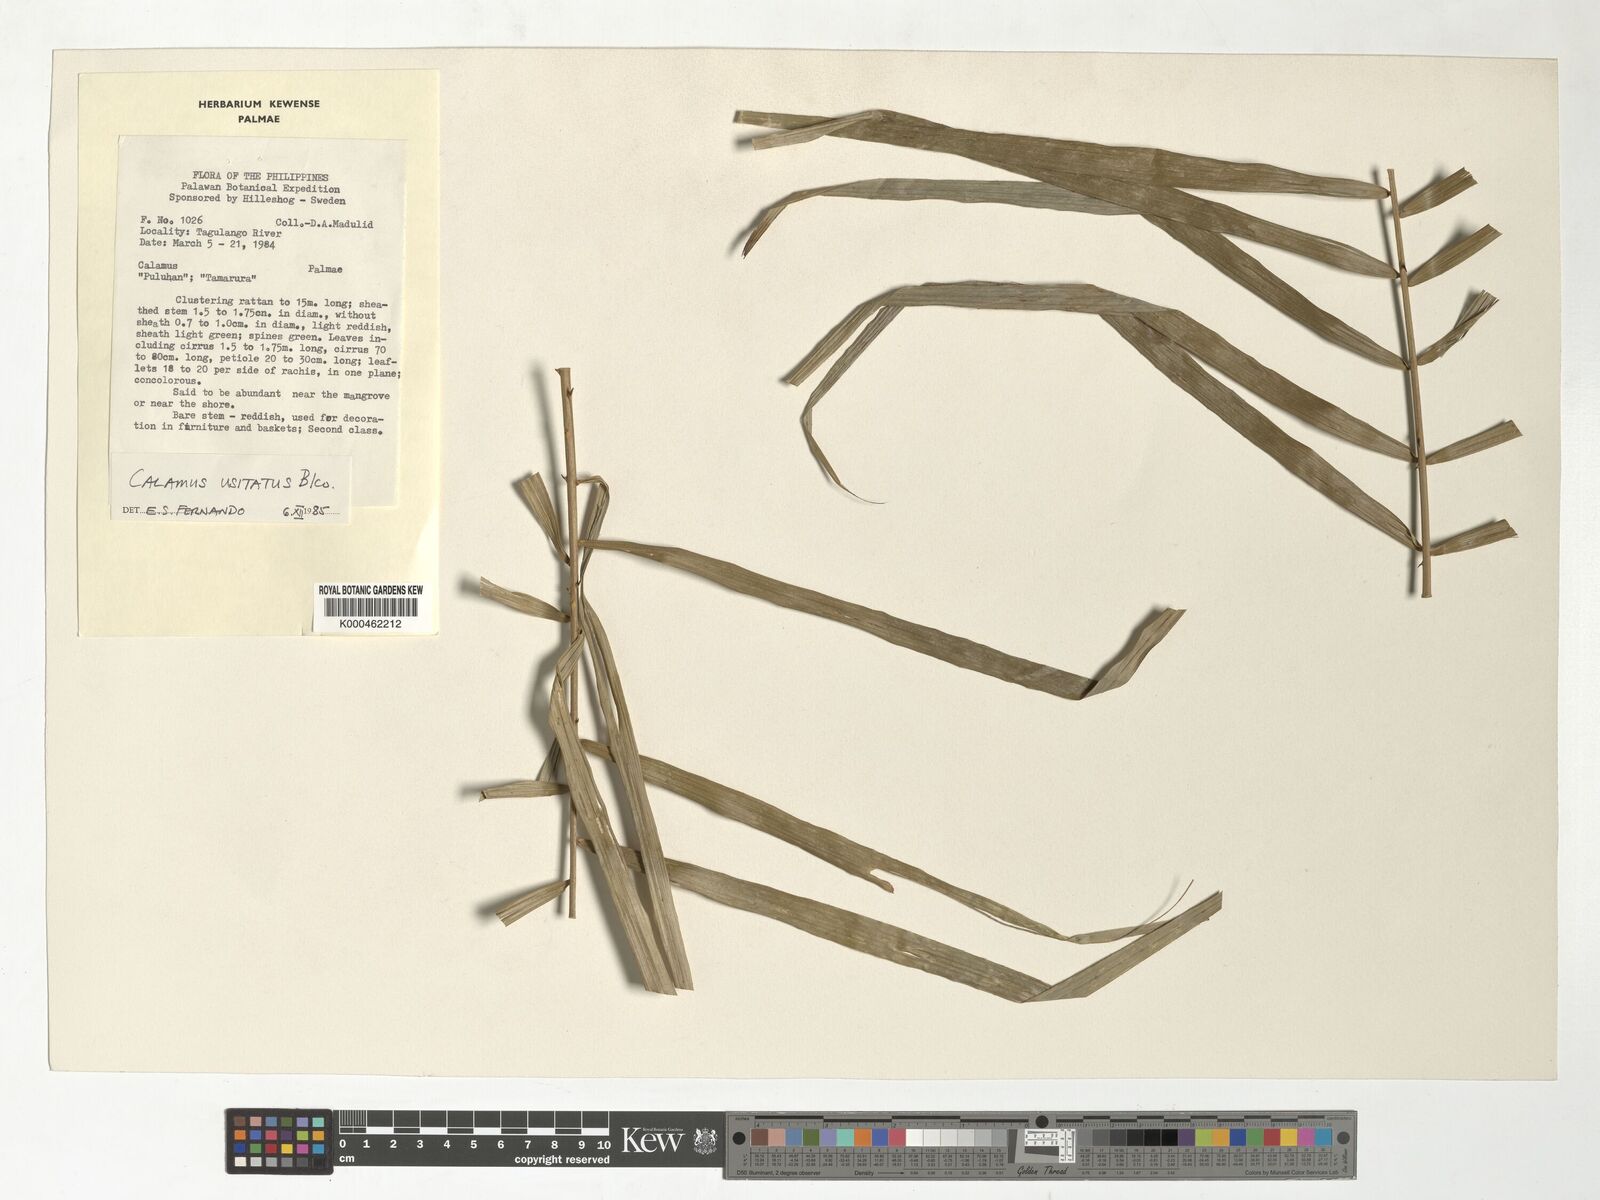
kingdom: Plantae
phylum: Tracheophyta
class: Liliopsida
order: Arecales
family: Arecaceae
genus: Calamus
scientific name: Calamus usitatus
